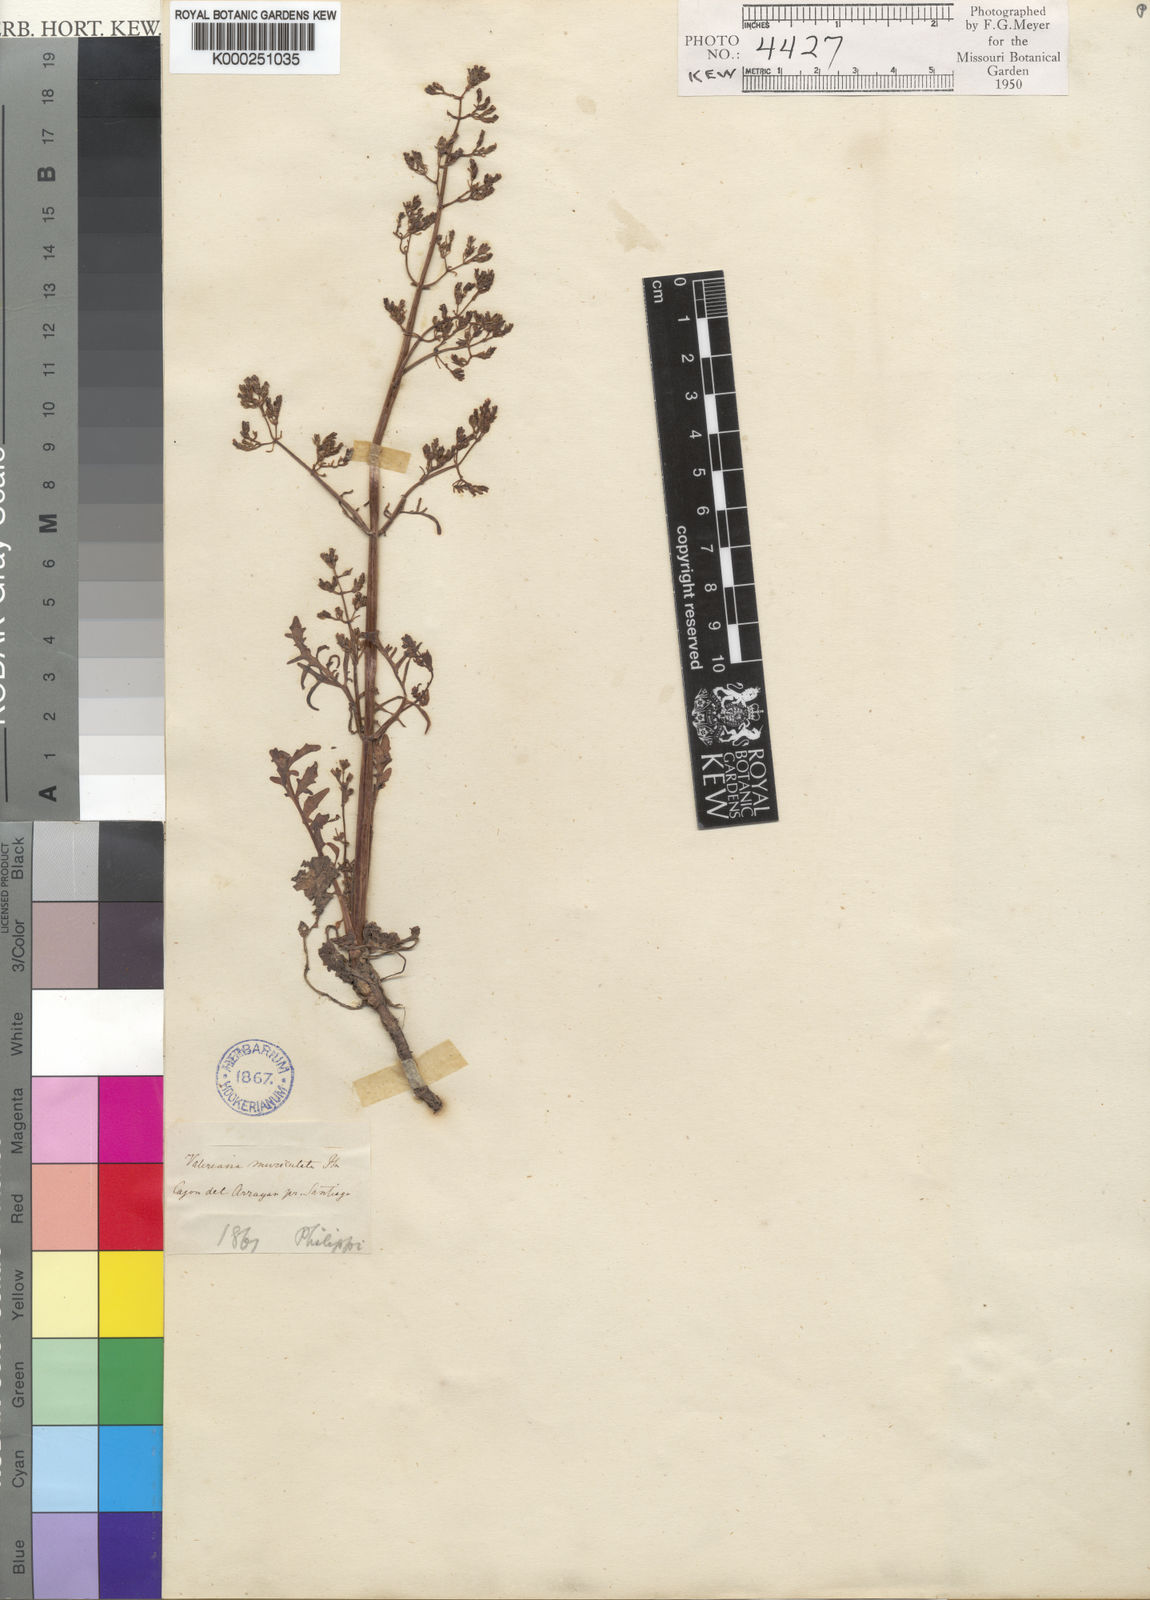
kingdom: Plantae
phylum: Tracheophyta
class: Magnoliopsida
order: Dipsacales
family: Caprifoliaceae
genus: Valeriana
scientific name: Valeriana vaga
